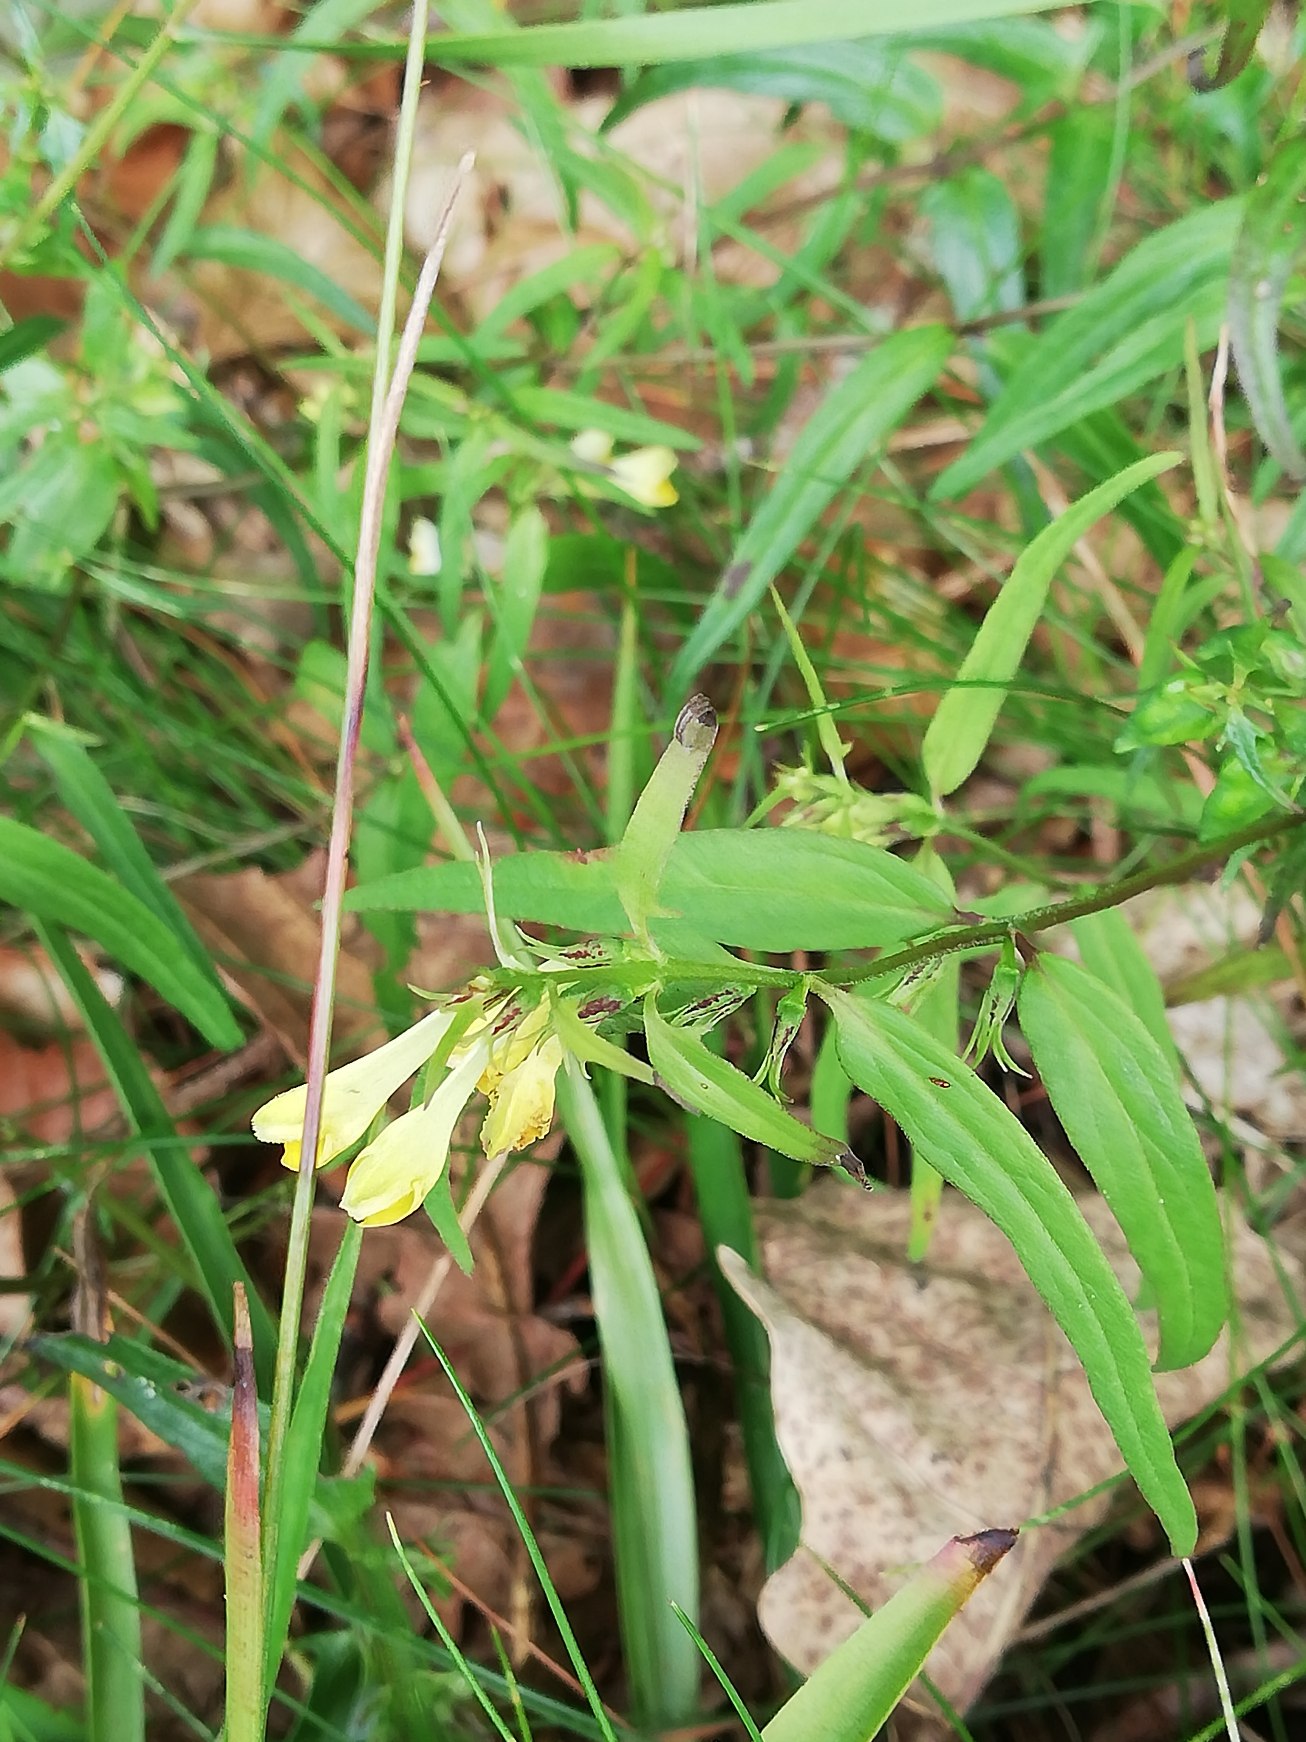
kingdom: Plantae
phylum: Tracheophyta
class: Magnoliopsida
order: Lamiales
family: Orobanchaceae
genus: Melampyrum
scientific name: Melampyrum pratense
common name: Almindelig kohvede
